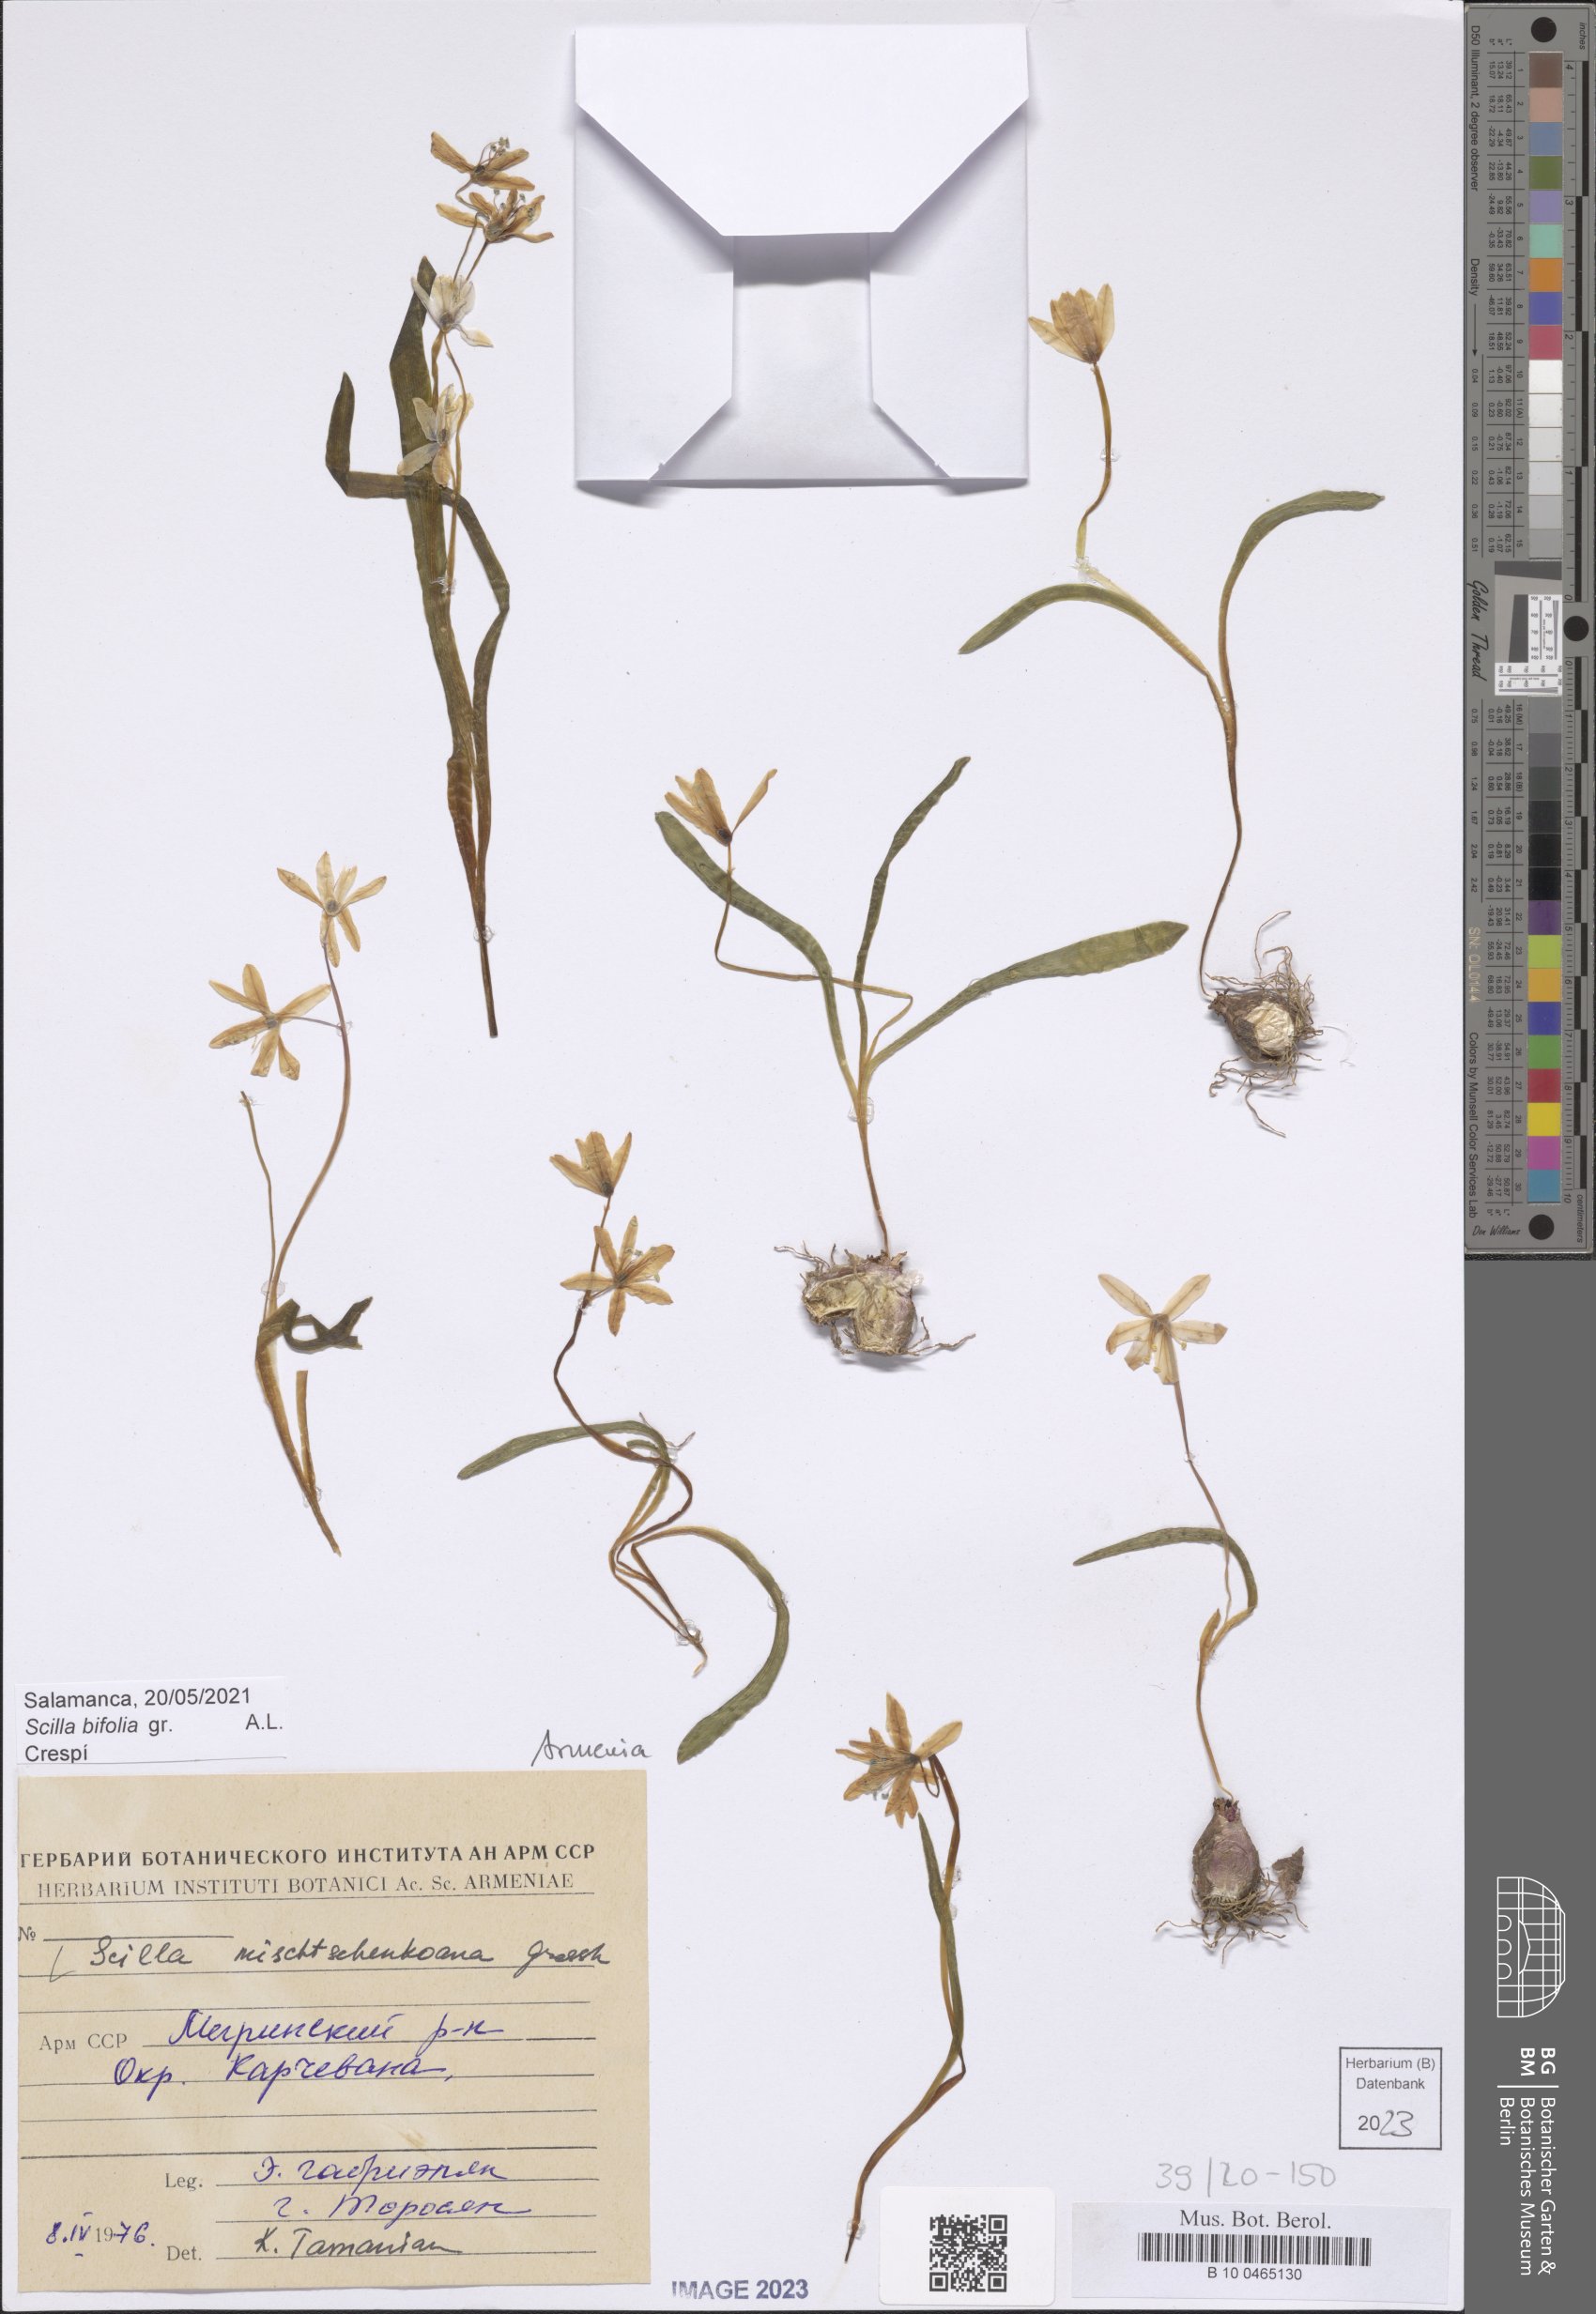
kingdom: Plantae
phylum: Tracheophyta
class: Liliopsida
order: Asparagales
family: Asparagaceae
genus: Scilla
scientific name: Scilla mischtschenkoana
